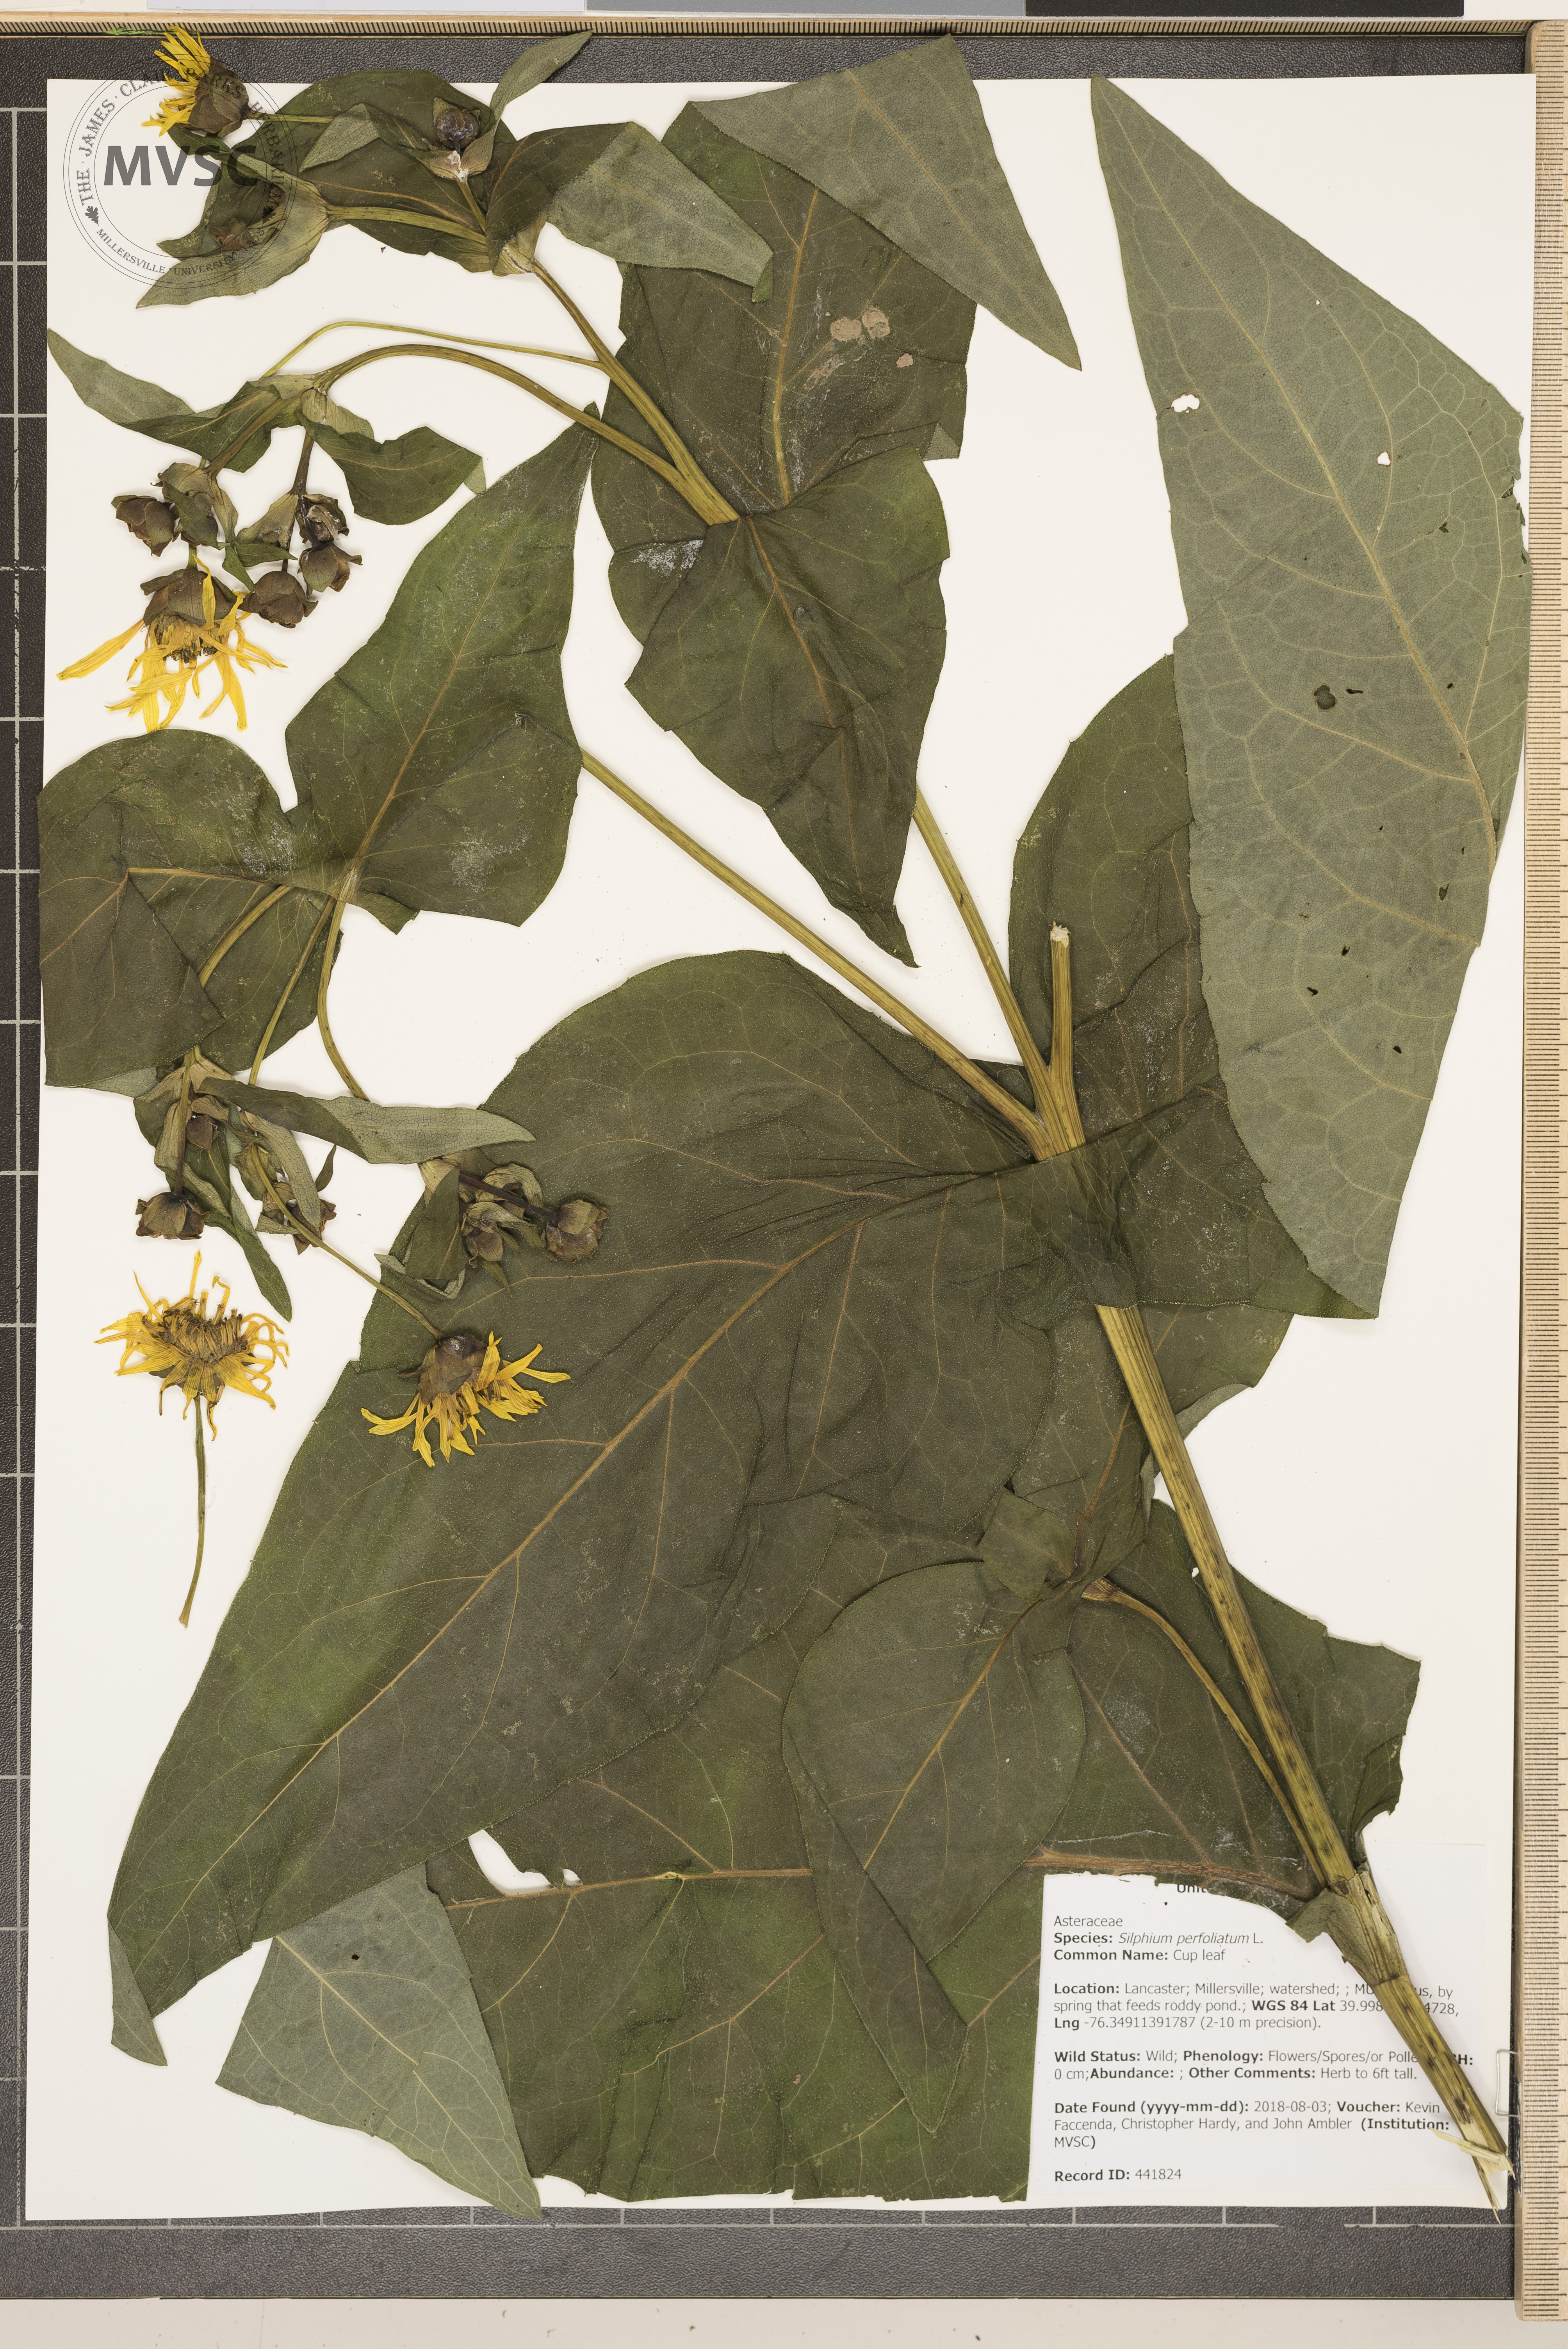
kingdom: Plantae
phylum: Tracheophyta
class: Magnoliopsida
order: Asterales
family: Asteraceae
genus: Silphium
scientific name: Silphium perfoliatum
